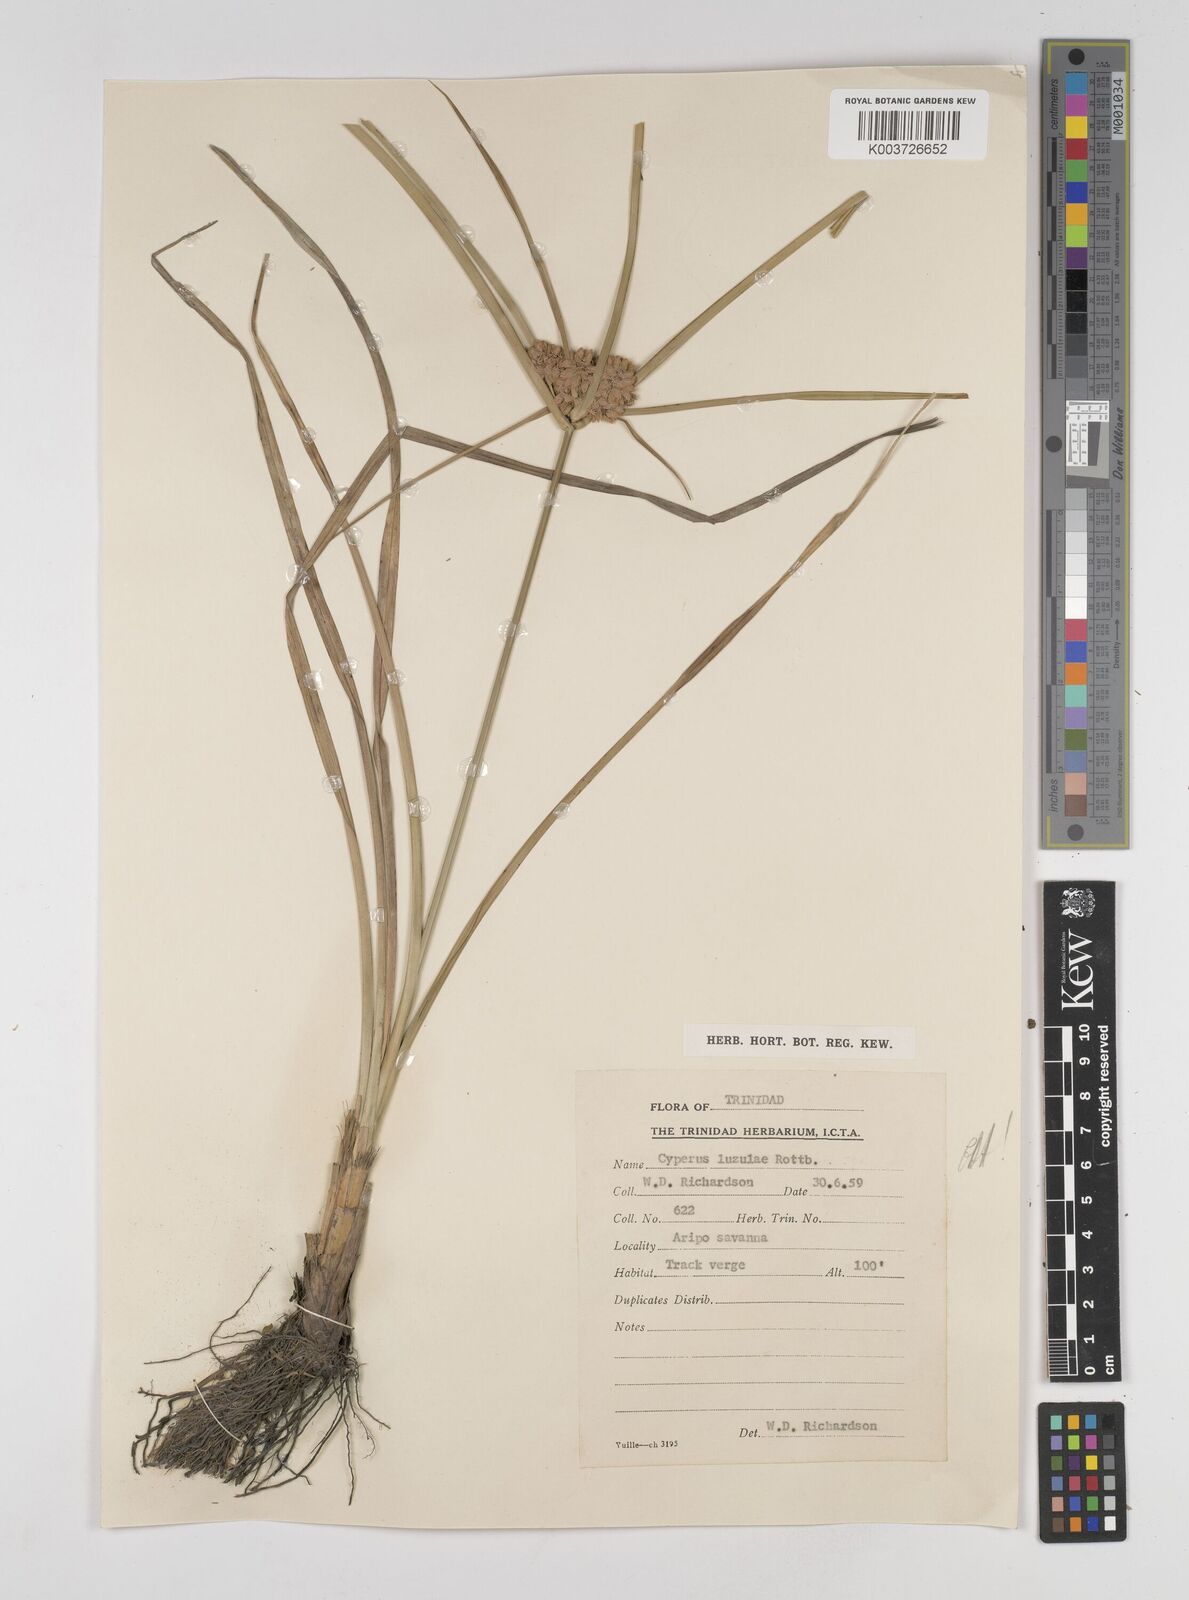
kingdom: Plantae
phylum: Tracheophyta
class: Liliopsida
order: Poales
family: Cyperaceae
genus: Cyperus
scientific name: Cyperus luzulae
